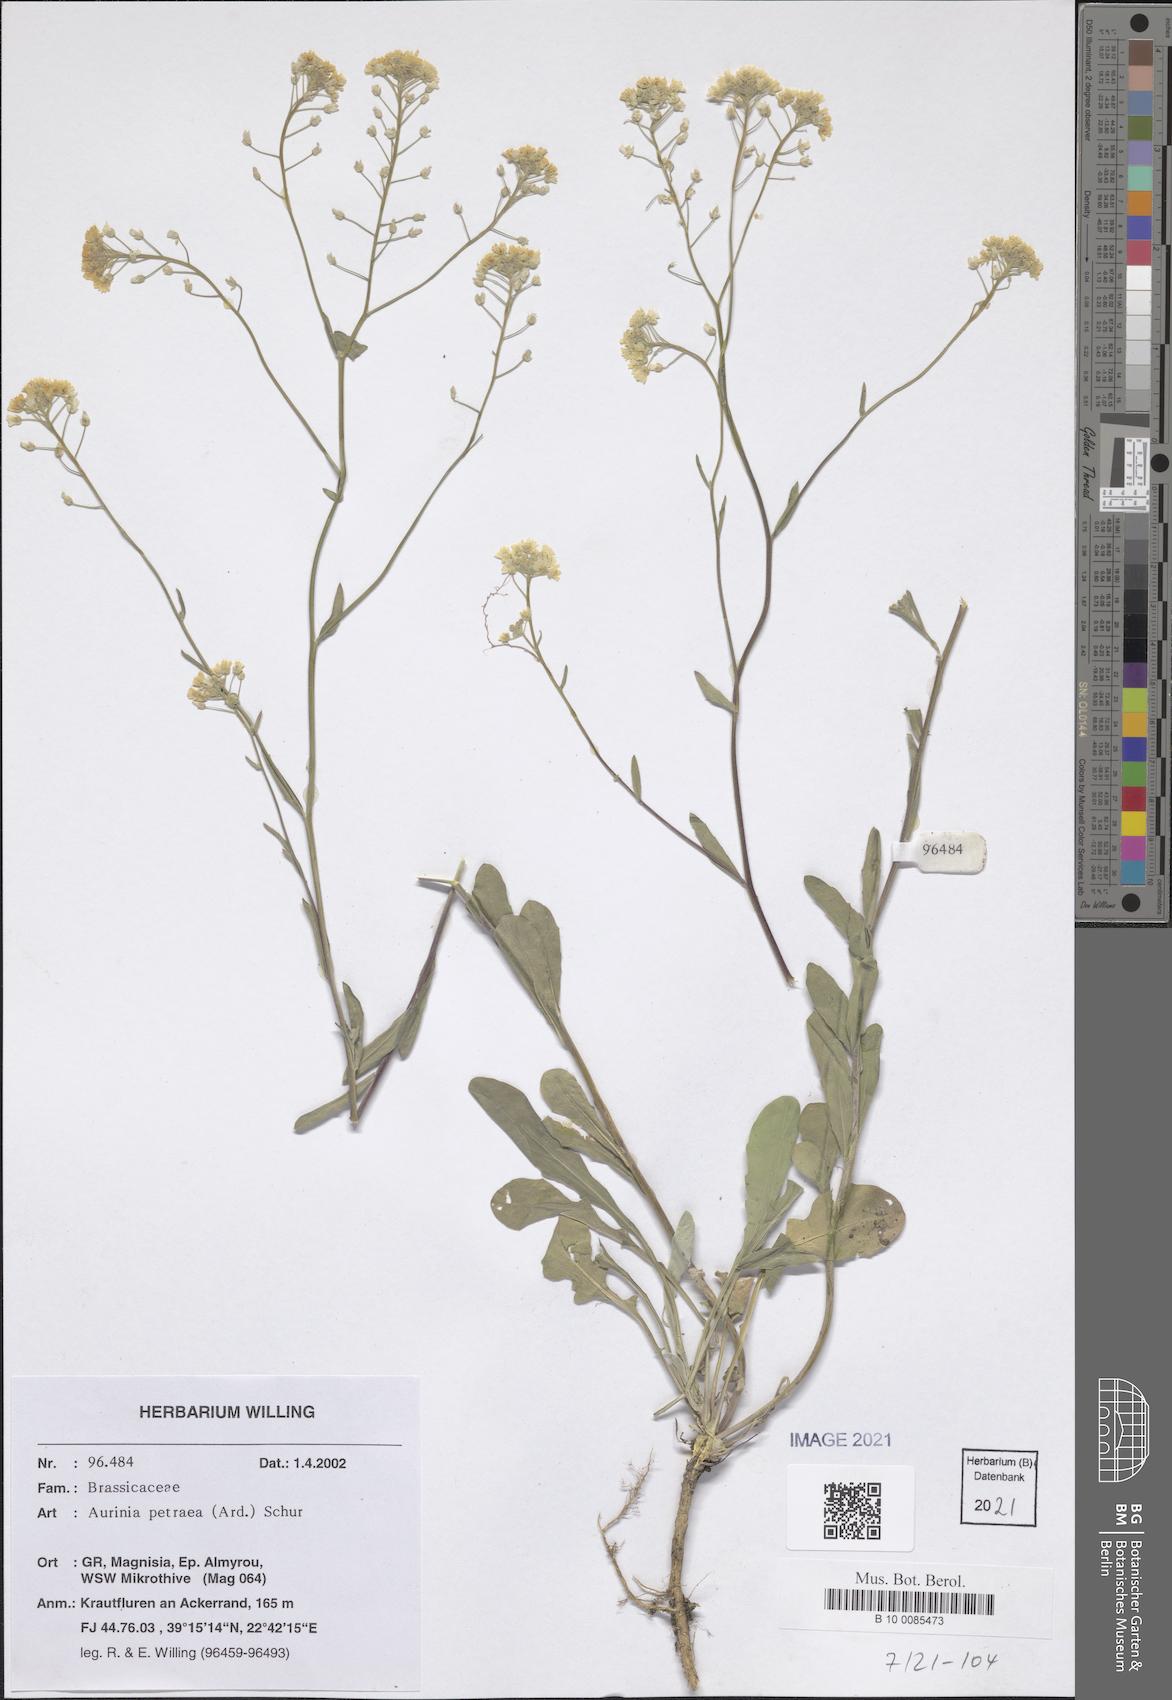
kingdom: Plantae
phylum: Tracheophyta
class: Magnoliopsida
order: Brassicales
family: Brassicaceae
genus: Aurinia
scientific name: Aurinia petraea
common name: Goldentuft
